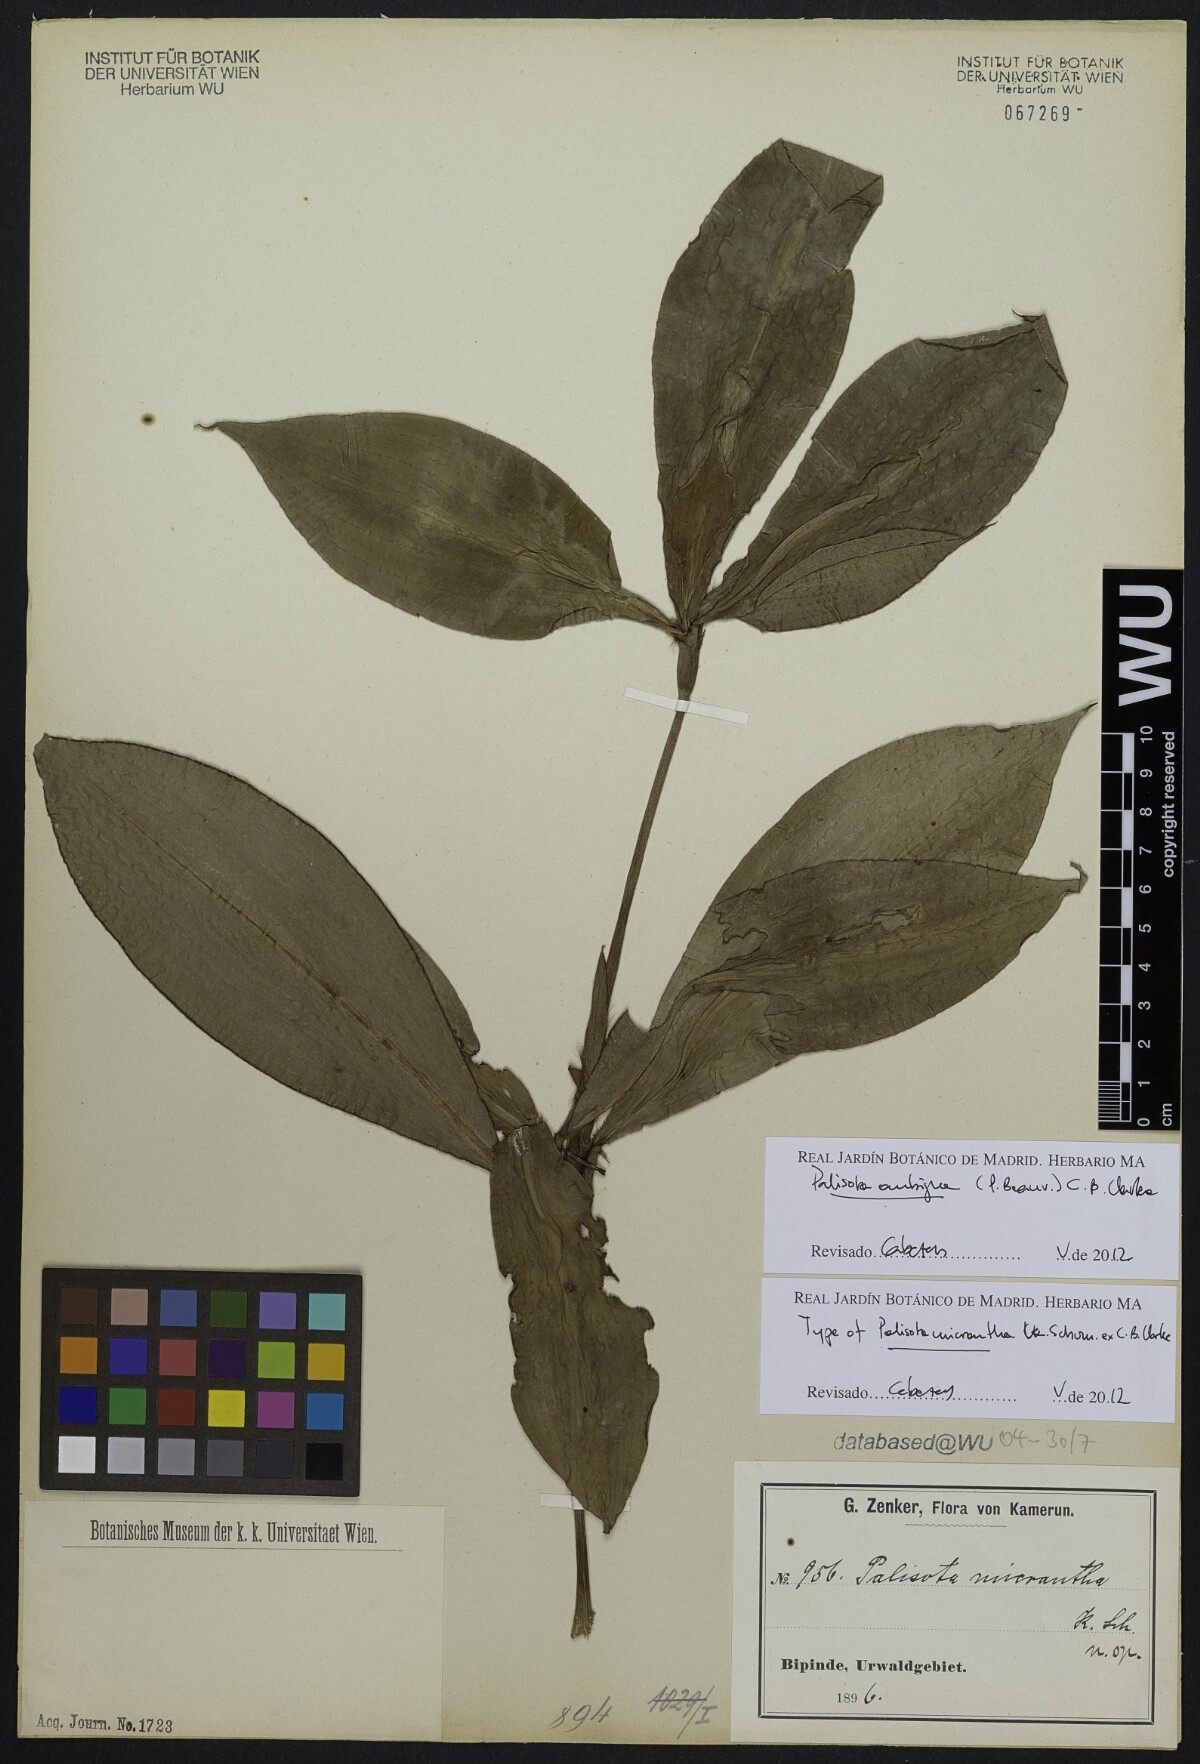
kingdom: Plantae
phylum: Tracheophyta
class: Liliopsida
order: Commelinales
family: Commelinaceae
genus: Palisota
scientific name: Palisota ambigua
